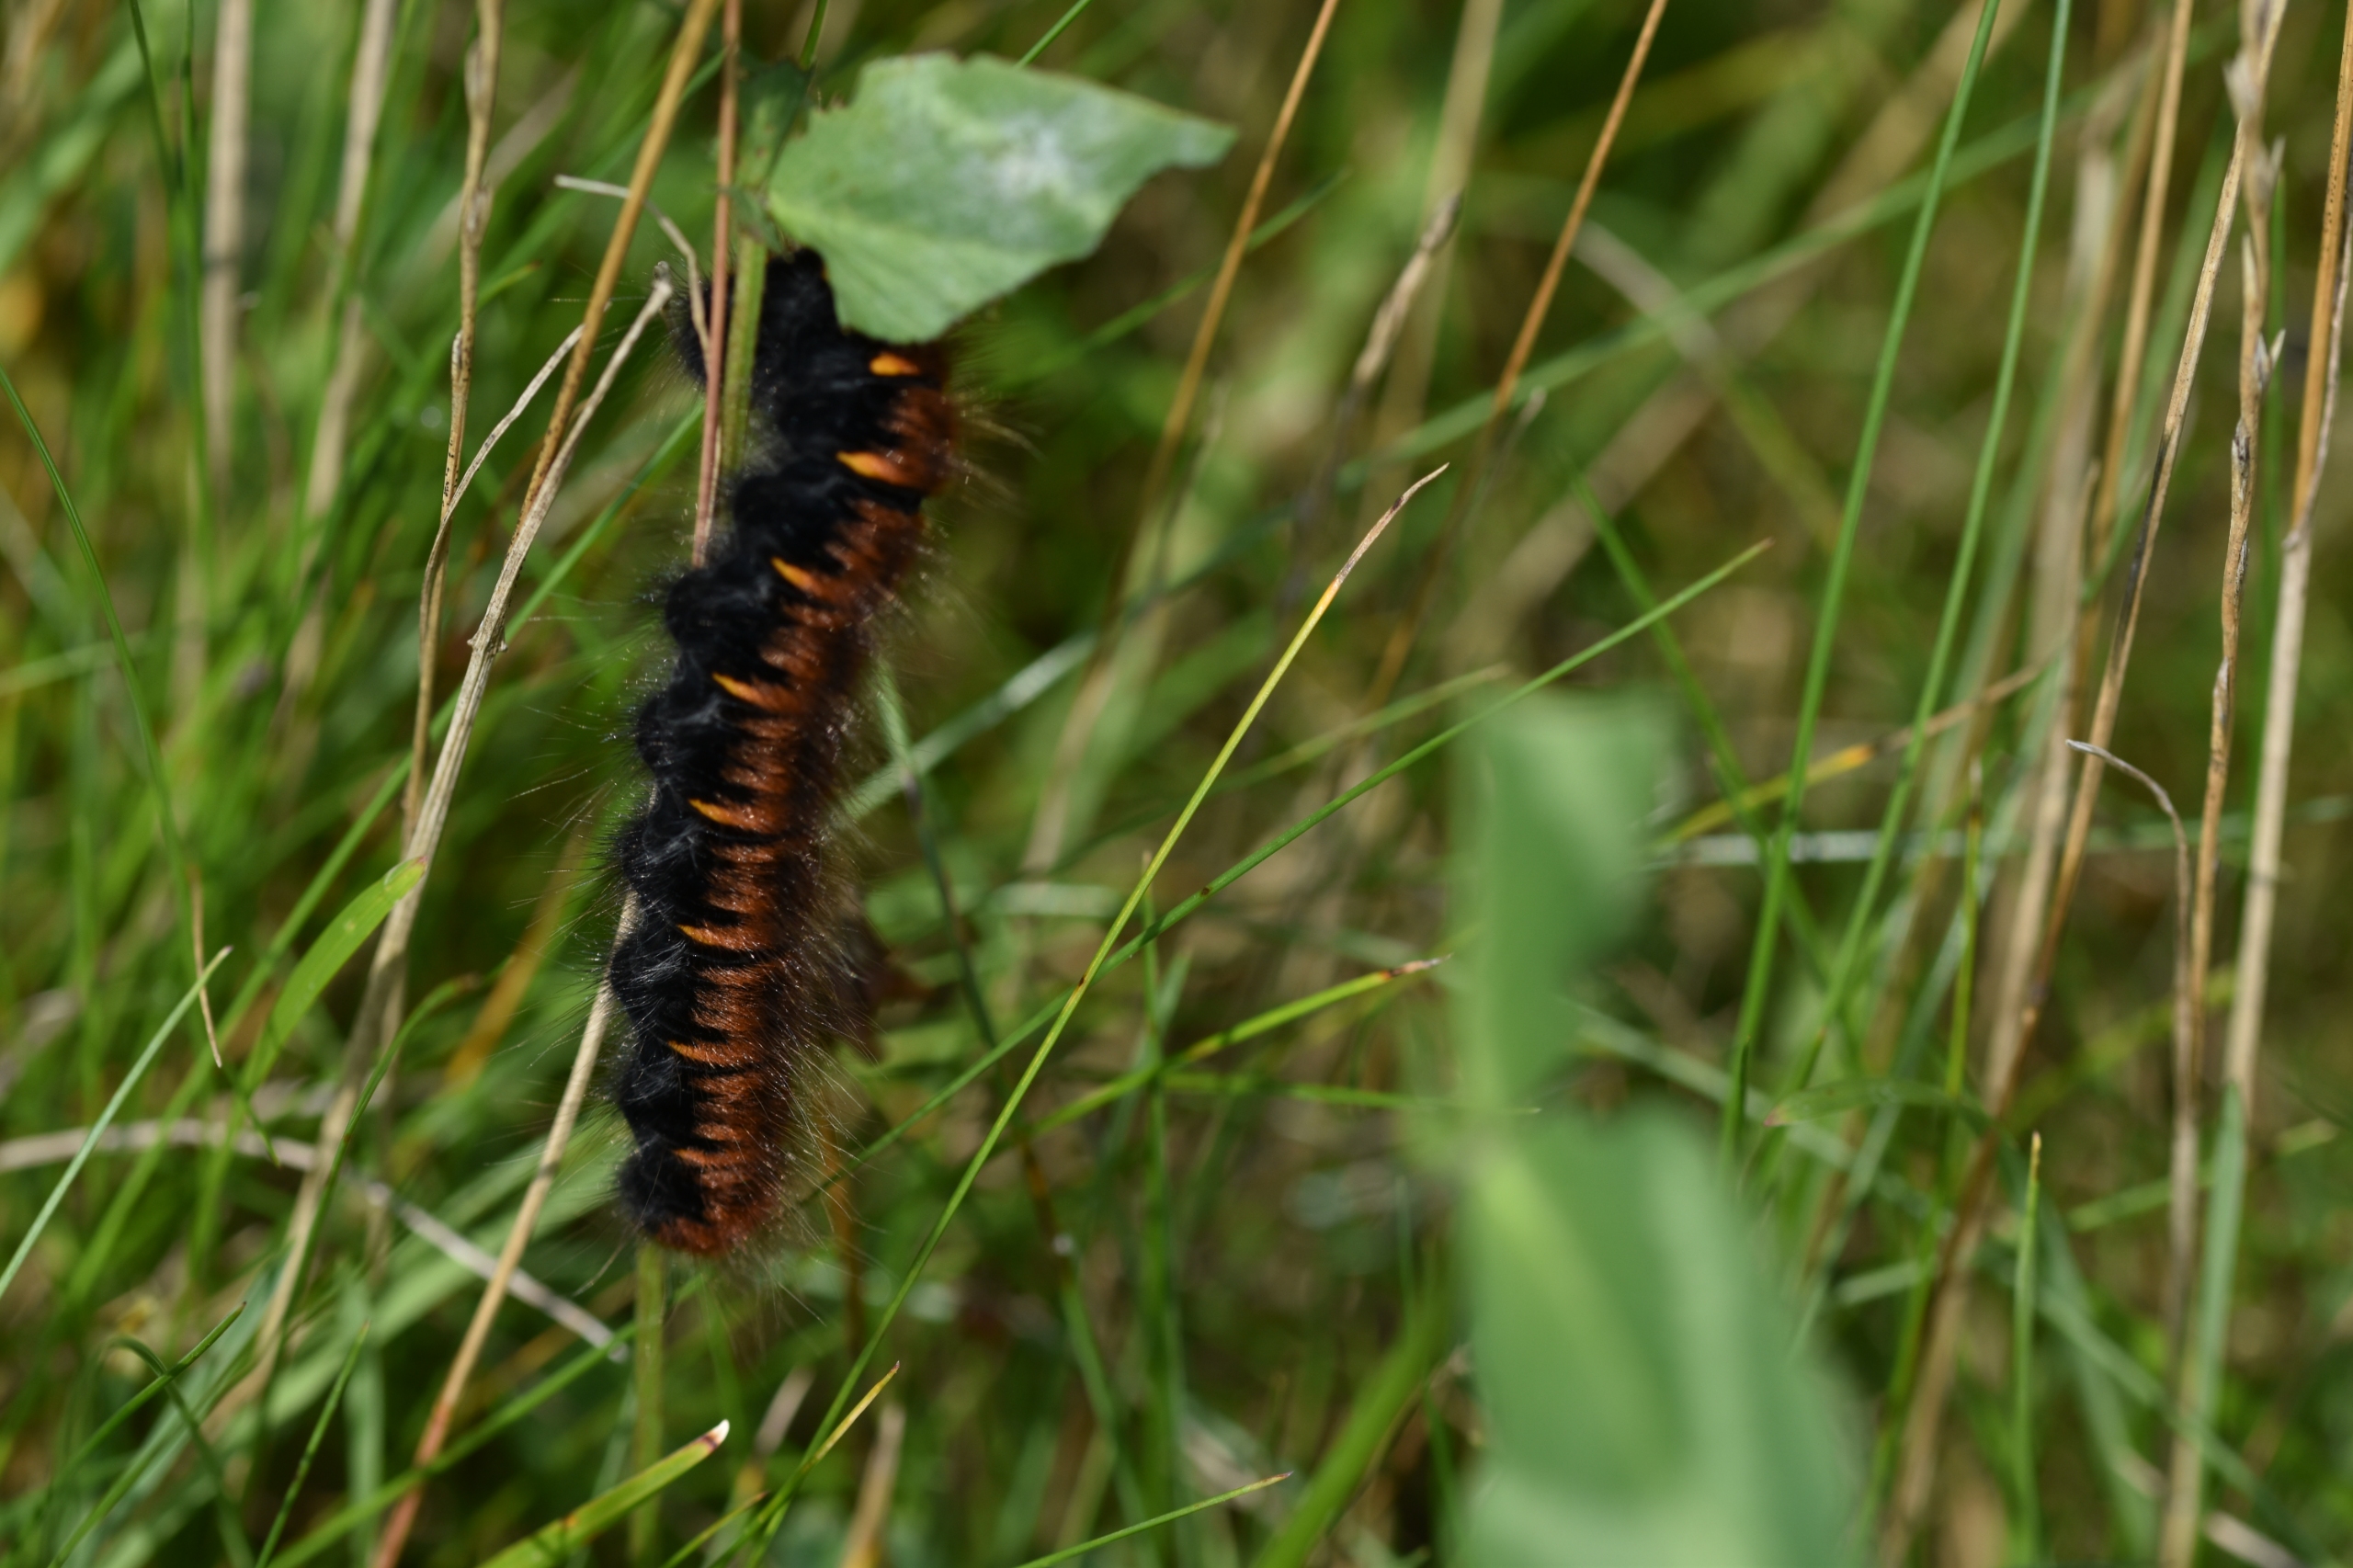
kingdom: Animalia
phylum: Arthropoda
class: Insecta
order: Lepidoptera
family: Lasiocampidae
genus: Macrothylacia
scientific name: Macrothylacia rubi
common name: Brombærspinder
